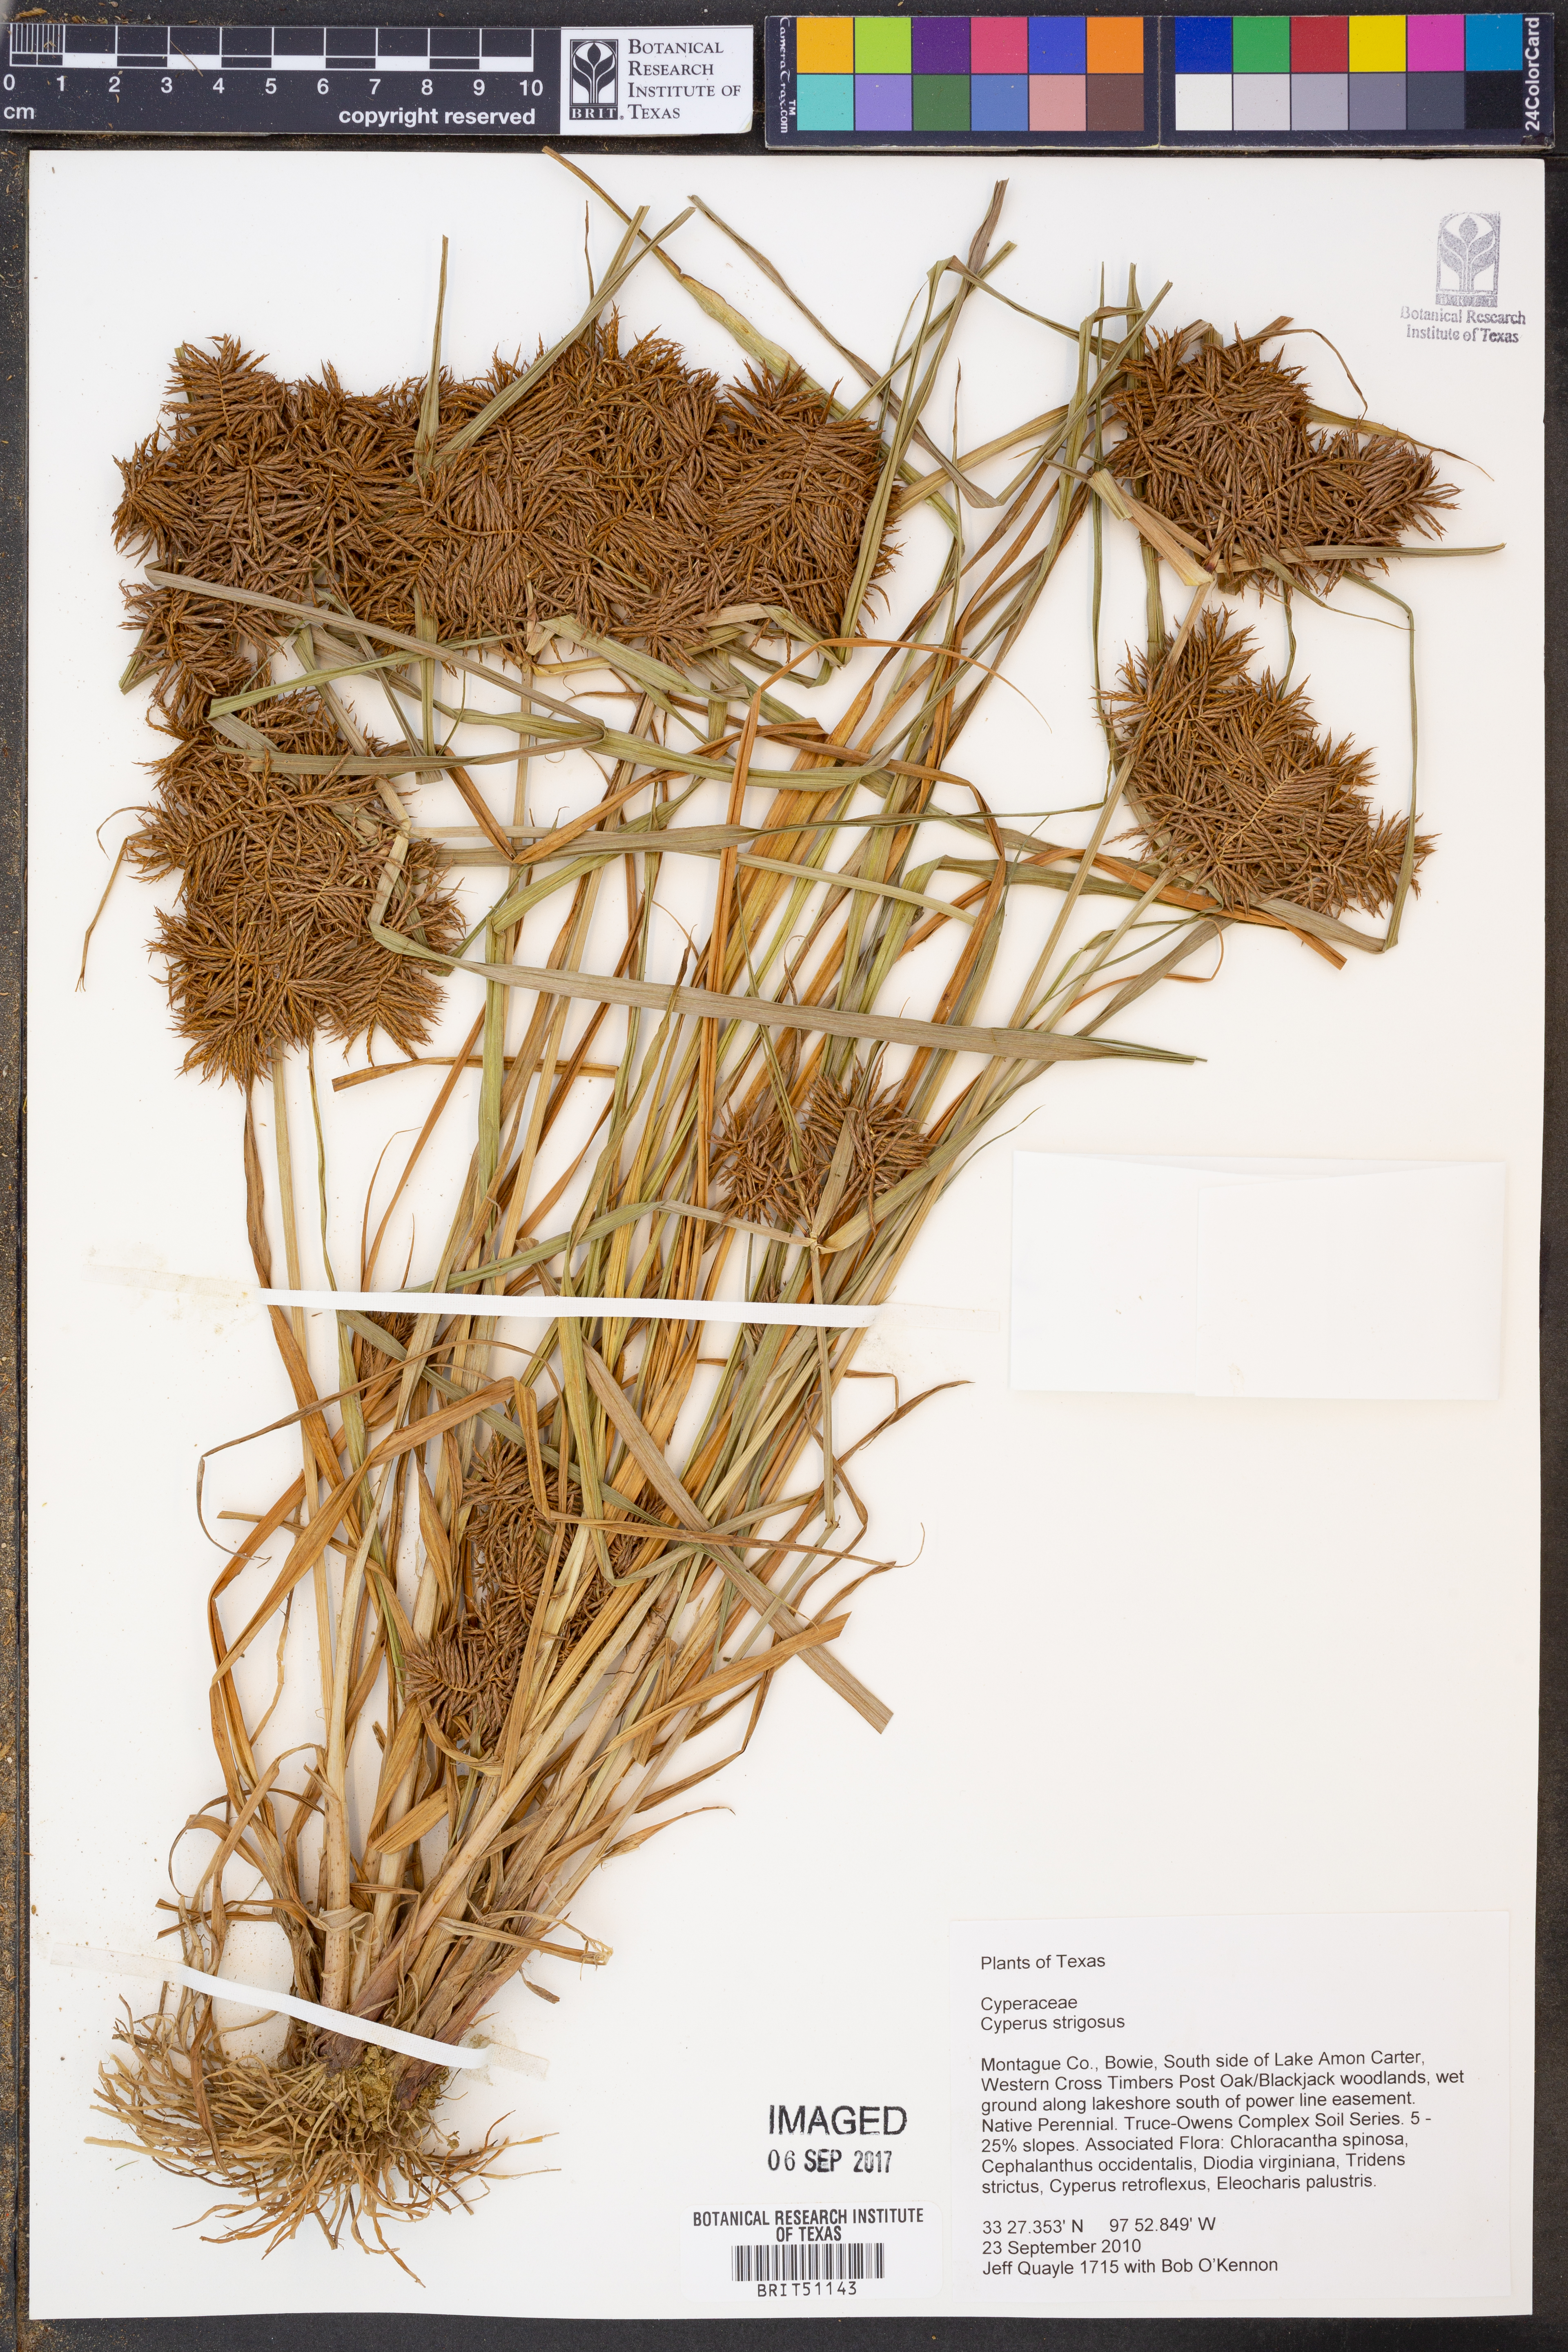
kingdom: Plantae
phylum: Tracheophyta
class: Liliopsida
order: Poales
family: Cyperaceae
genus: Cyperus
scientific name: Cyperus strigosus
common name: False nutsedge
